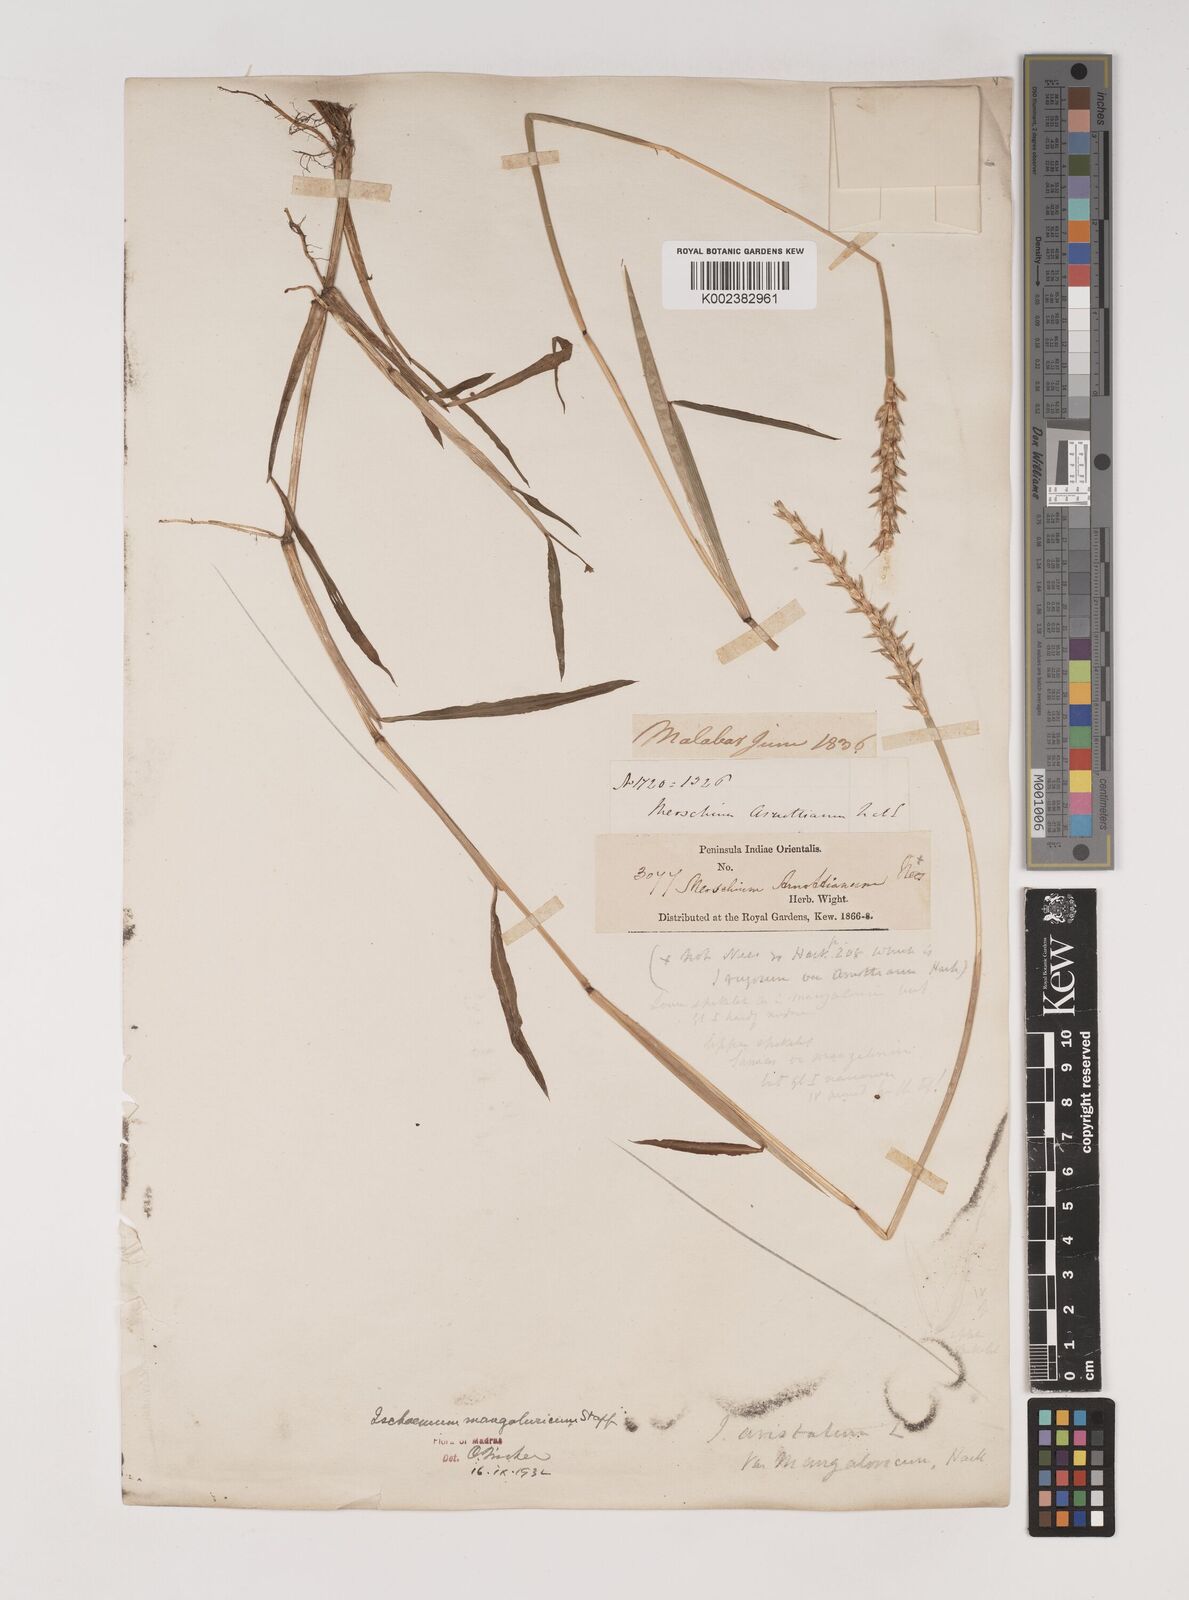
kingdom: Plantae
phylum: Tracheophyta
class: Liliopsida
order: Poales
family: Poaceae
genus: Ischaemum
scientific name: Ischaemum barbatum
